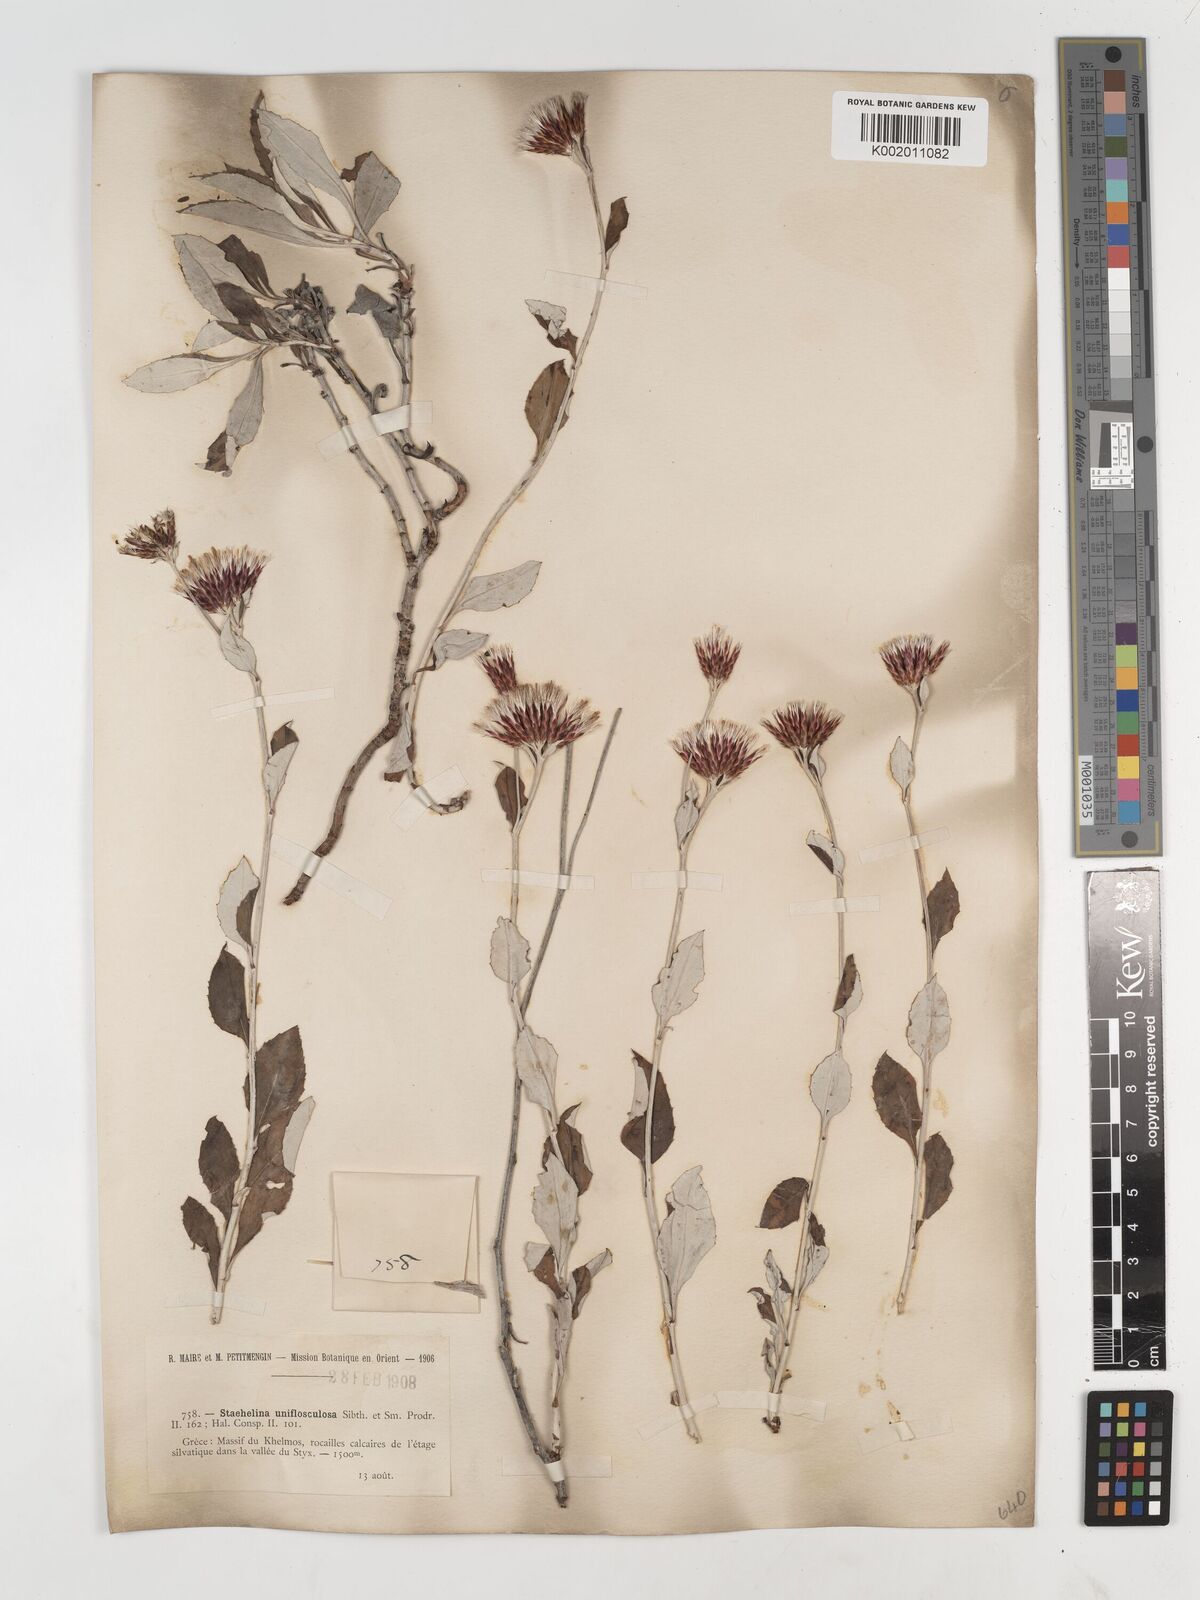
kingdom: Plantae
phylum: Tracheophyta
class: Magnoliopsida
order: Asterales
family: Asteraceae
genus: Staehelina
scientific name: Staehelina uniflosculosa
